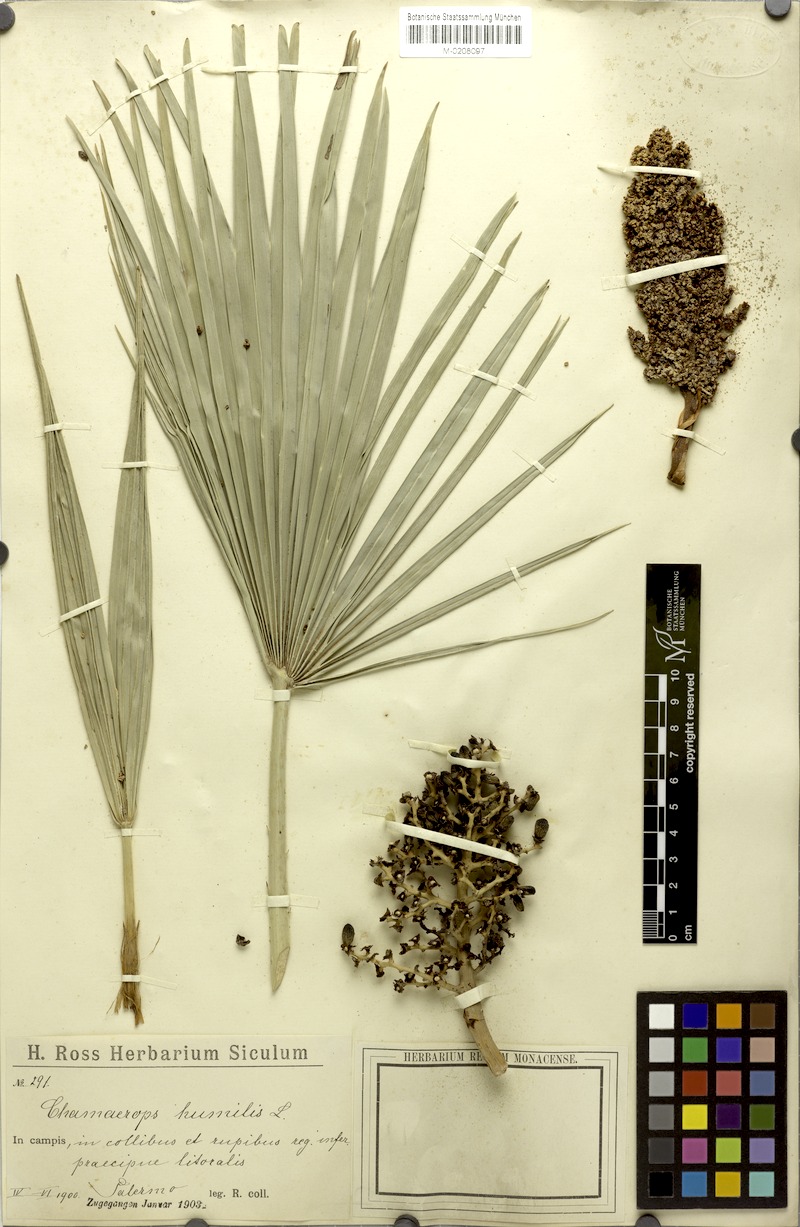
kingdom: Plantae
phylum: Tracheophyta
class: Liliopsida
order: Arecales
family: Arecaceae
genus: Chamaerops
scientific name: Chamaerops humilis
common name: Dwarf fan palm
